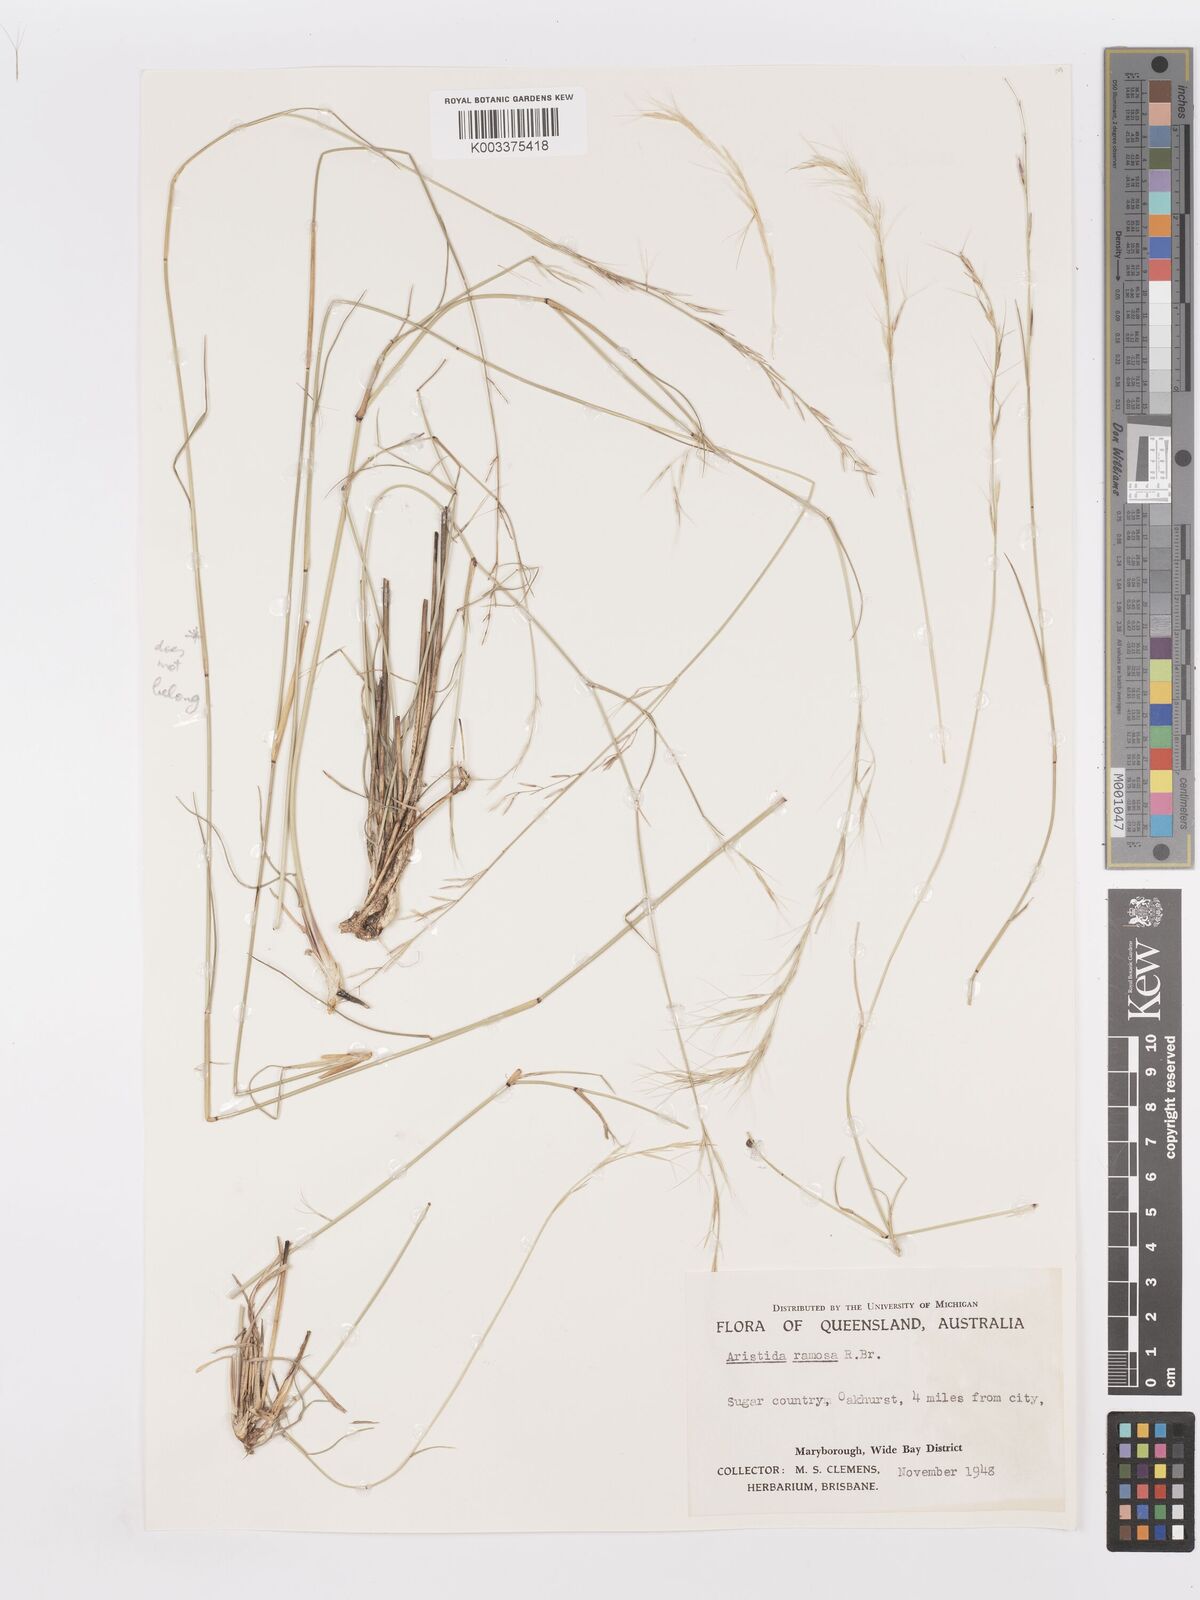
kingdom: Plantae
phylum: Tracheophyta
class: Liliopsida
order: Poales
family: Poaceae
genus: Aristida
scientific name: Aristida ramosa
